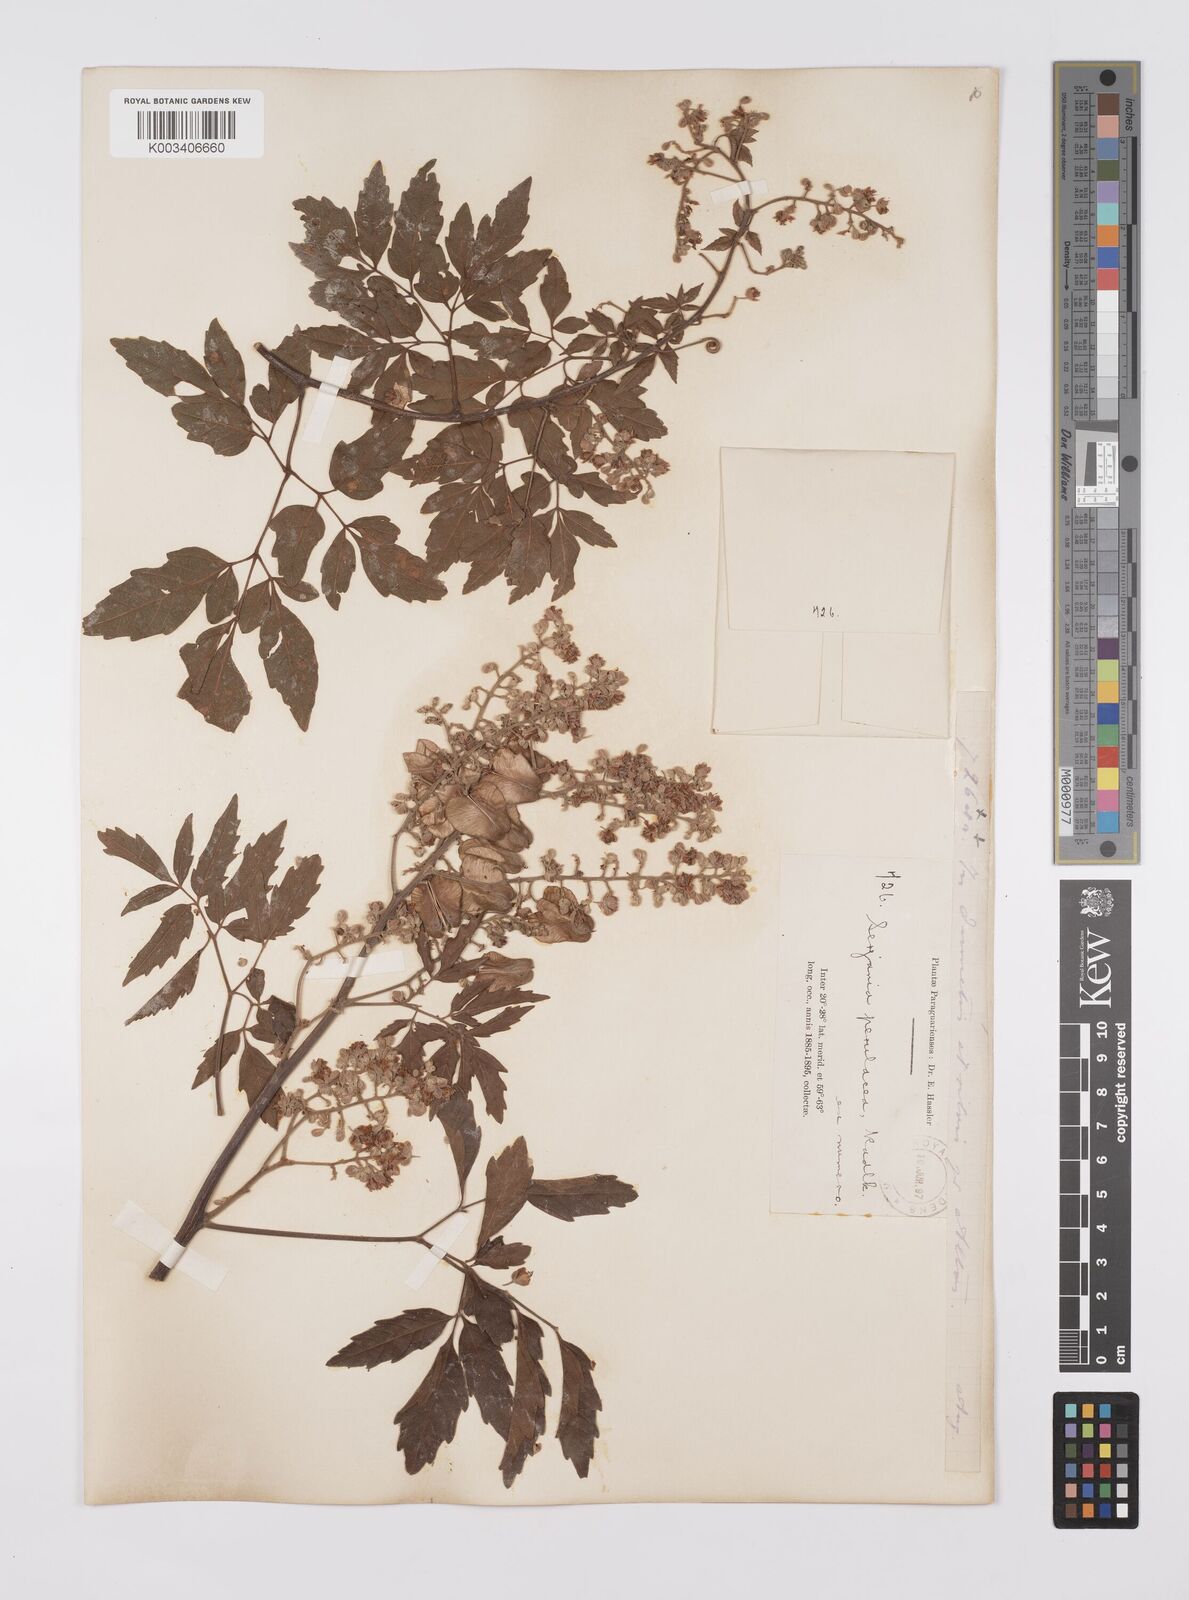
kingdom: Plantae
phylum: Tracheophyta
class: Magnoliopsida
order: Sapindales
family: Sapindaceae
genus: Serjania
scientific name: Serjania perulacea
